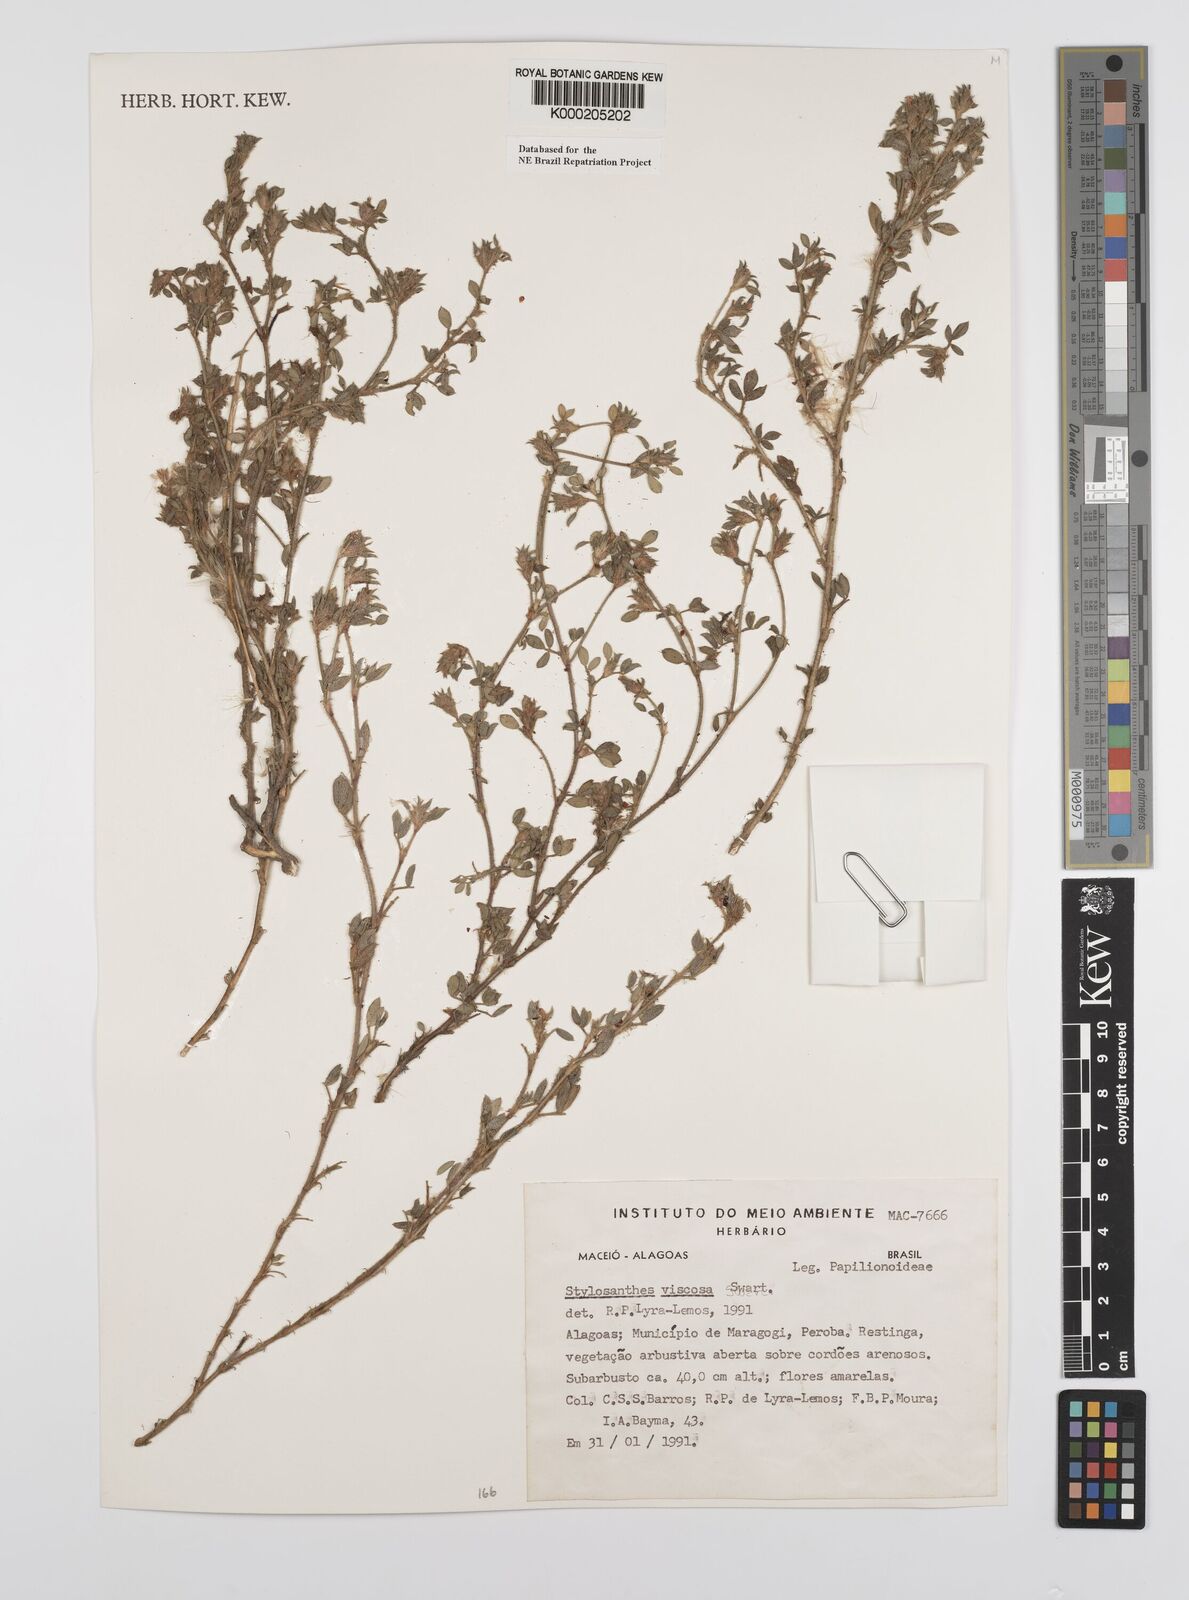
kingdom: Plantae
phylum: Tracheophyta
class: Magnoliopsida
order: Fabales
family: Fabaceae
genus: Stylosanthes
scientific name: Stylosanthes viscosa
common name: Viscid pencil-flower
